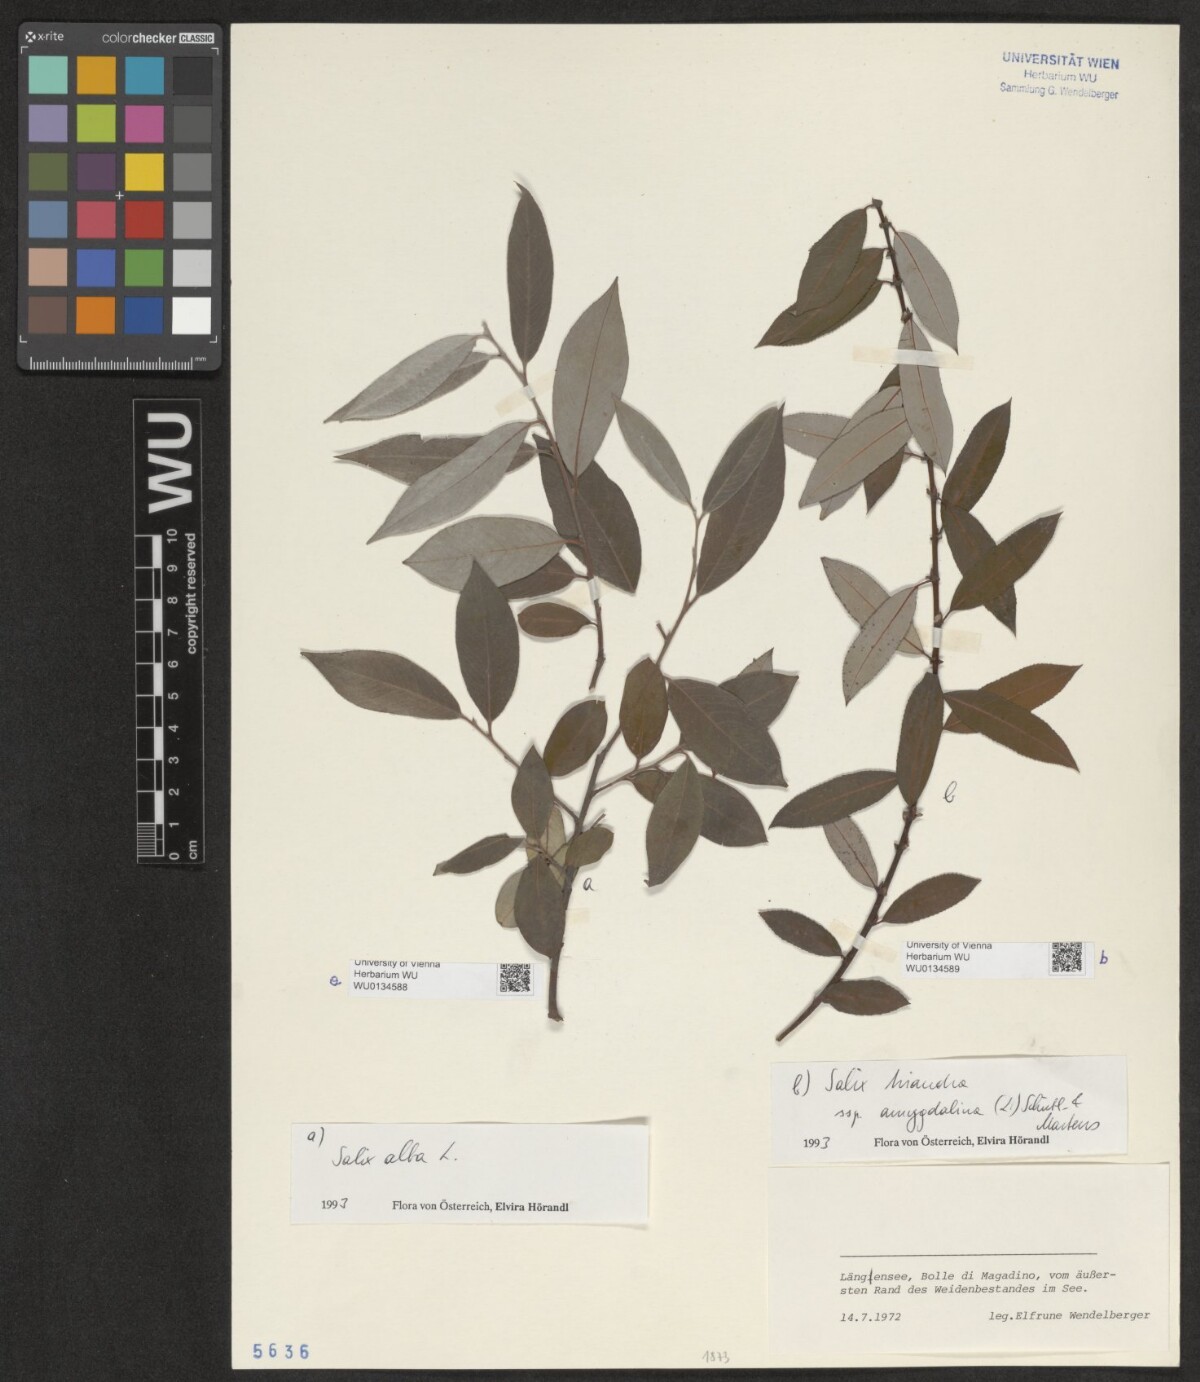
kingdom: Plantae
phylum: Tracheophyta
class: Magnoliopsida
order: Malpighiales
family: Salicaceae
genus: Salix
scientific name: Salix alba
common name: White willow
